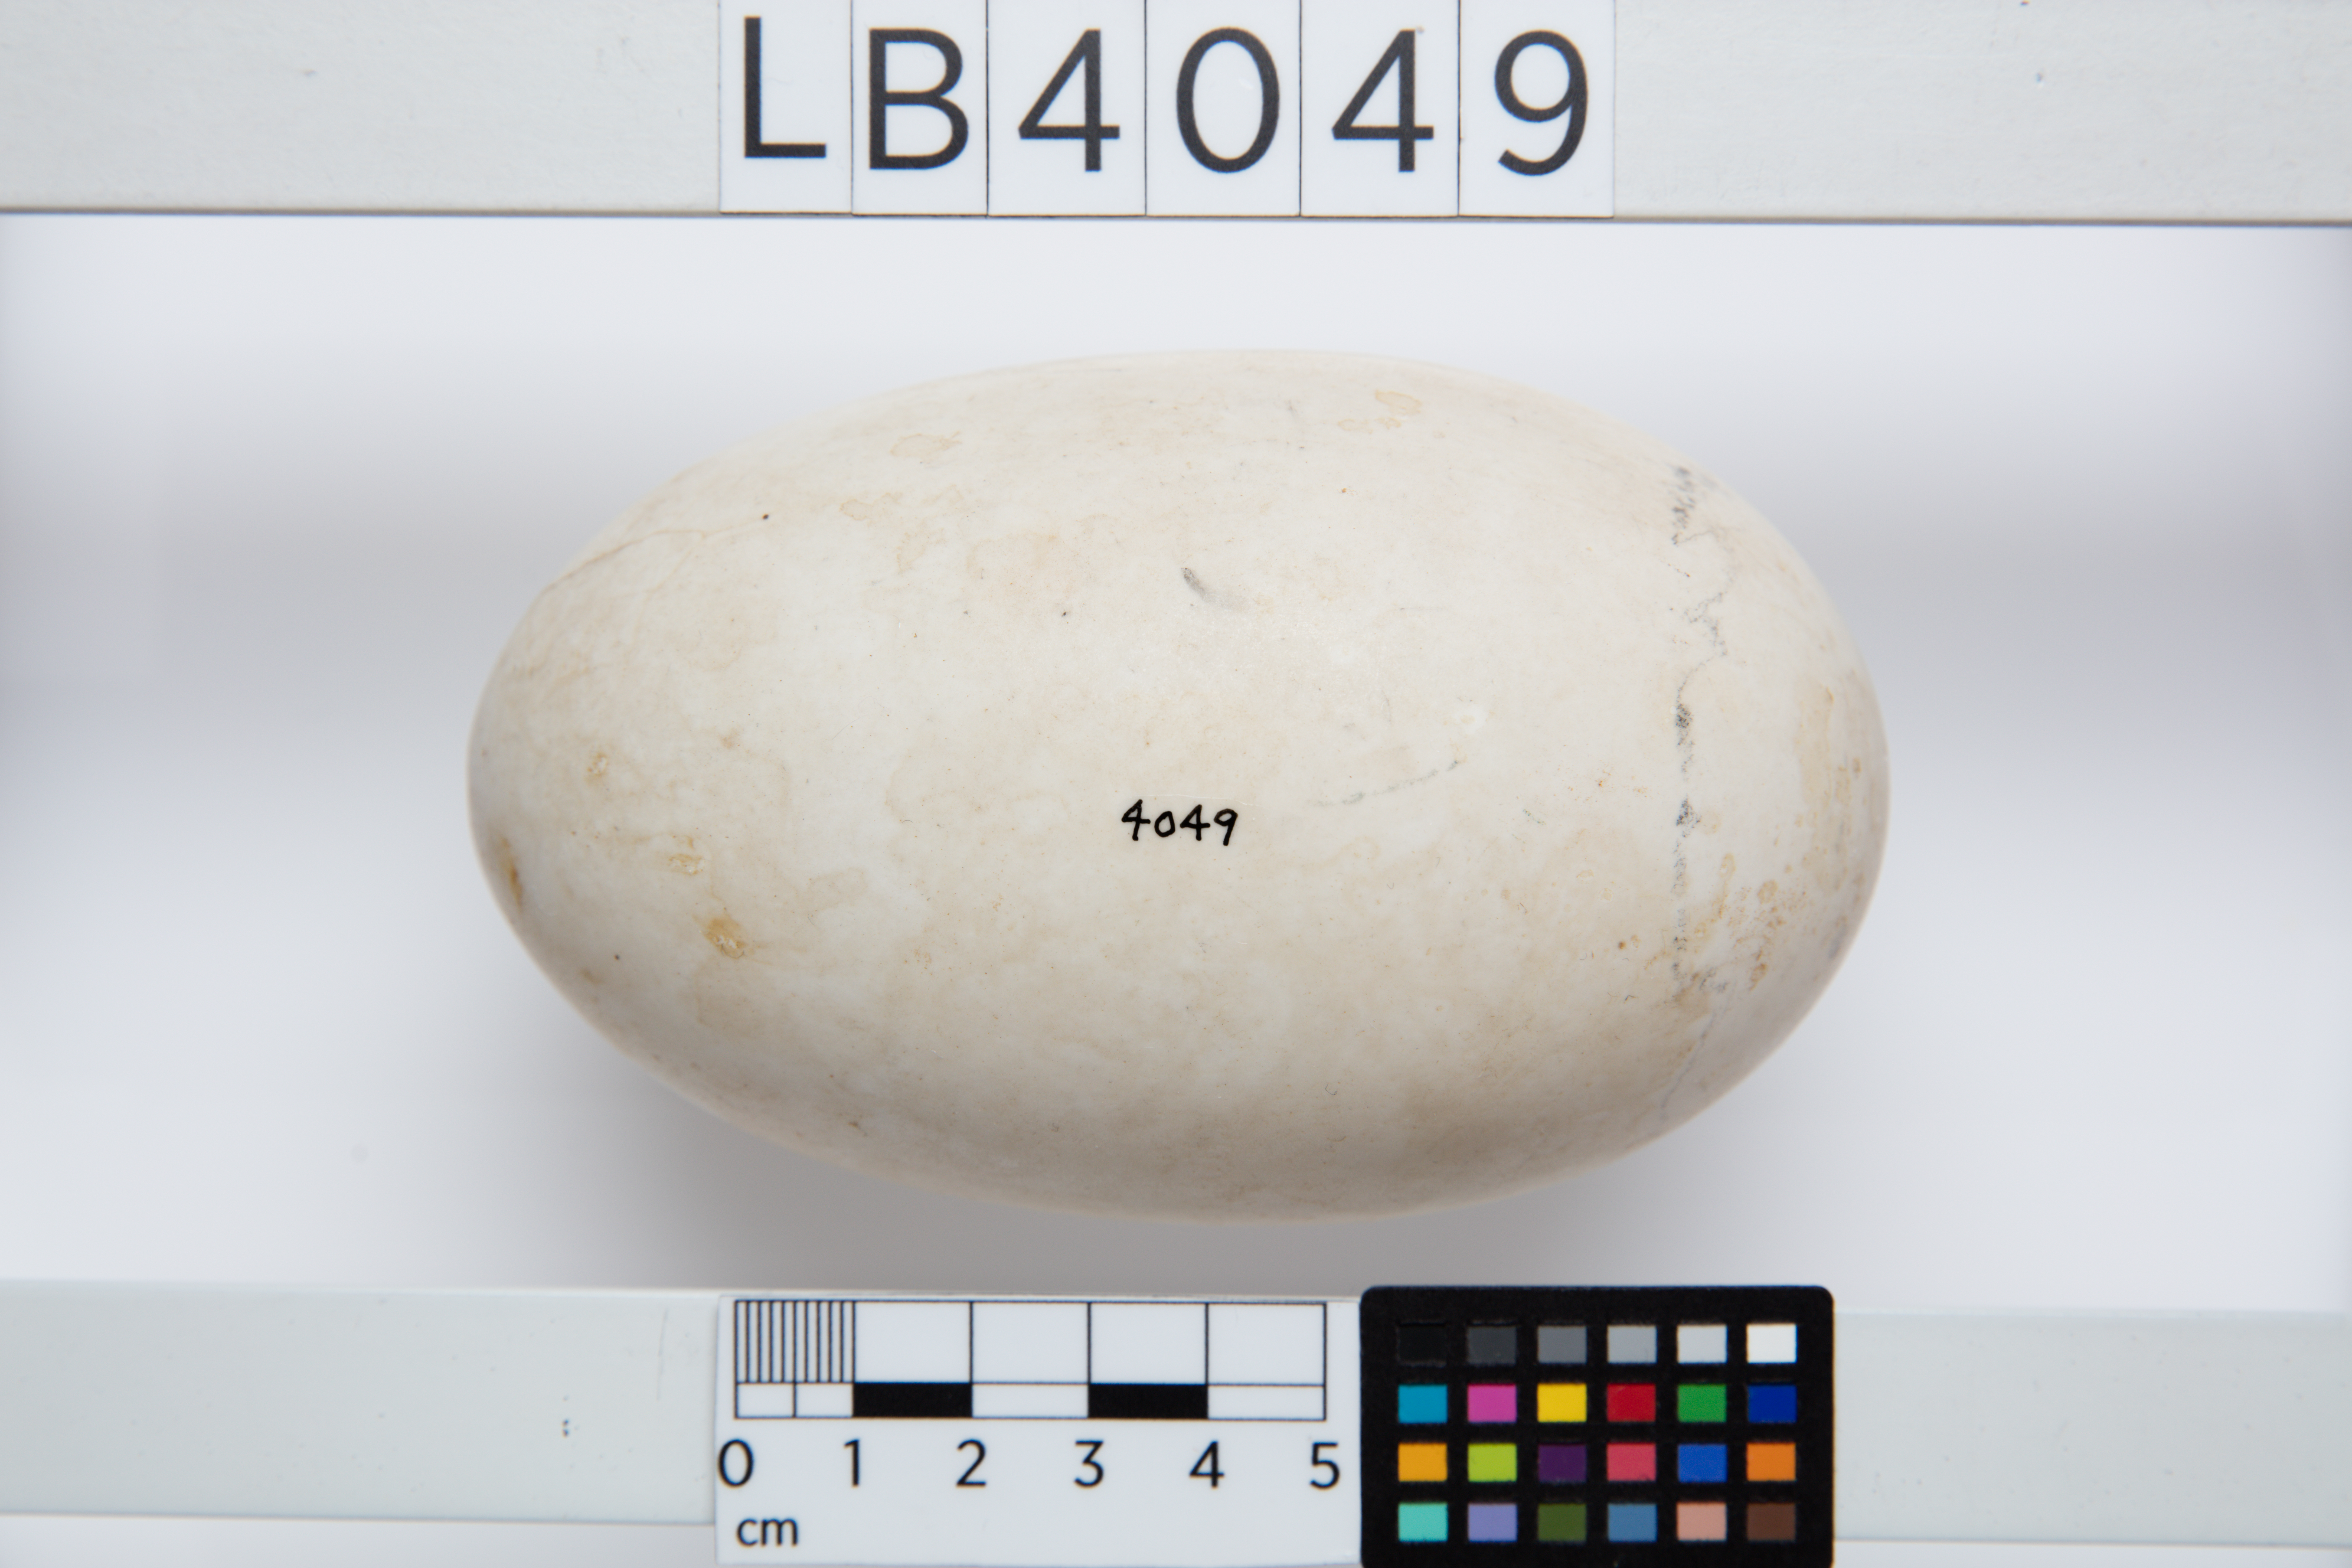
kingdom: Animalia
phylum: Chordata
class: Aves
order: Apterygiformes
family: Apterygidae
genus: Apteryx
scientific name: Apteryx
